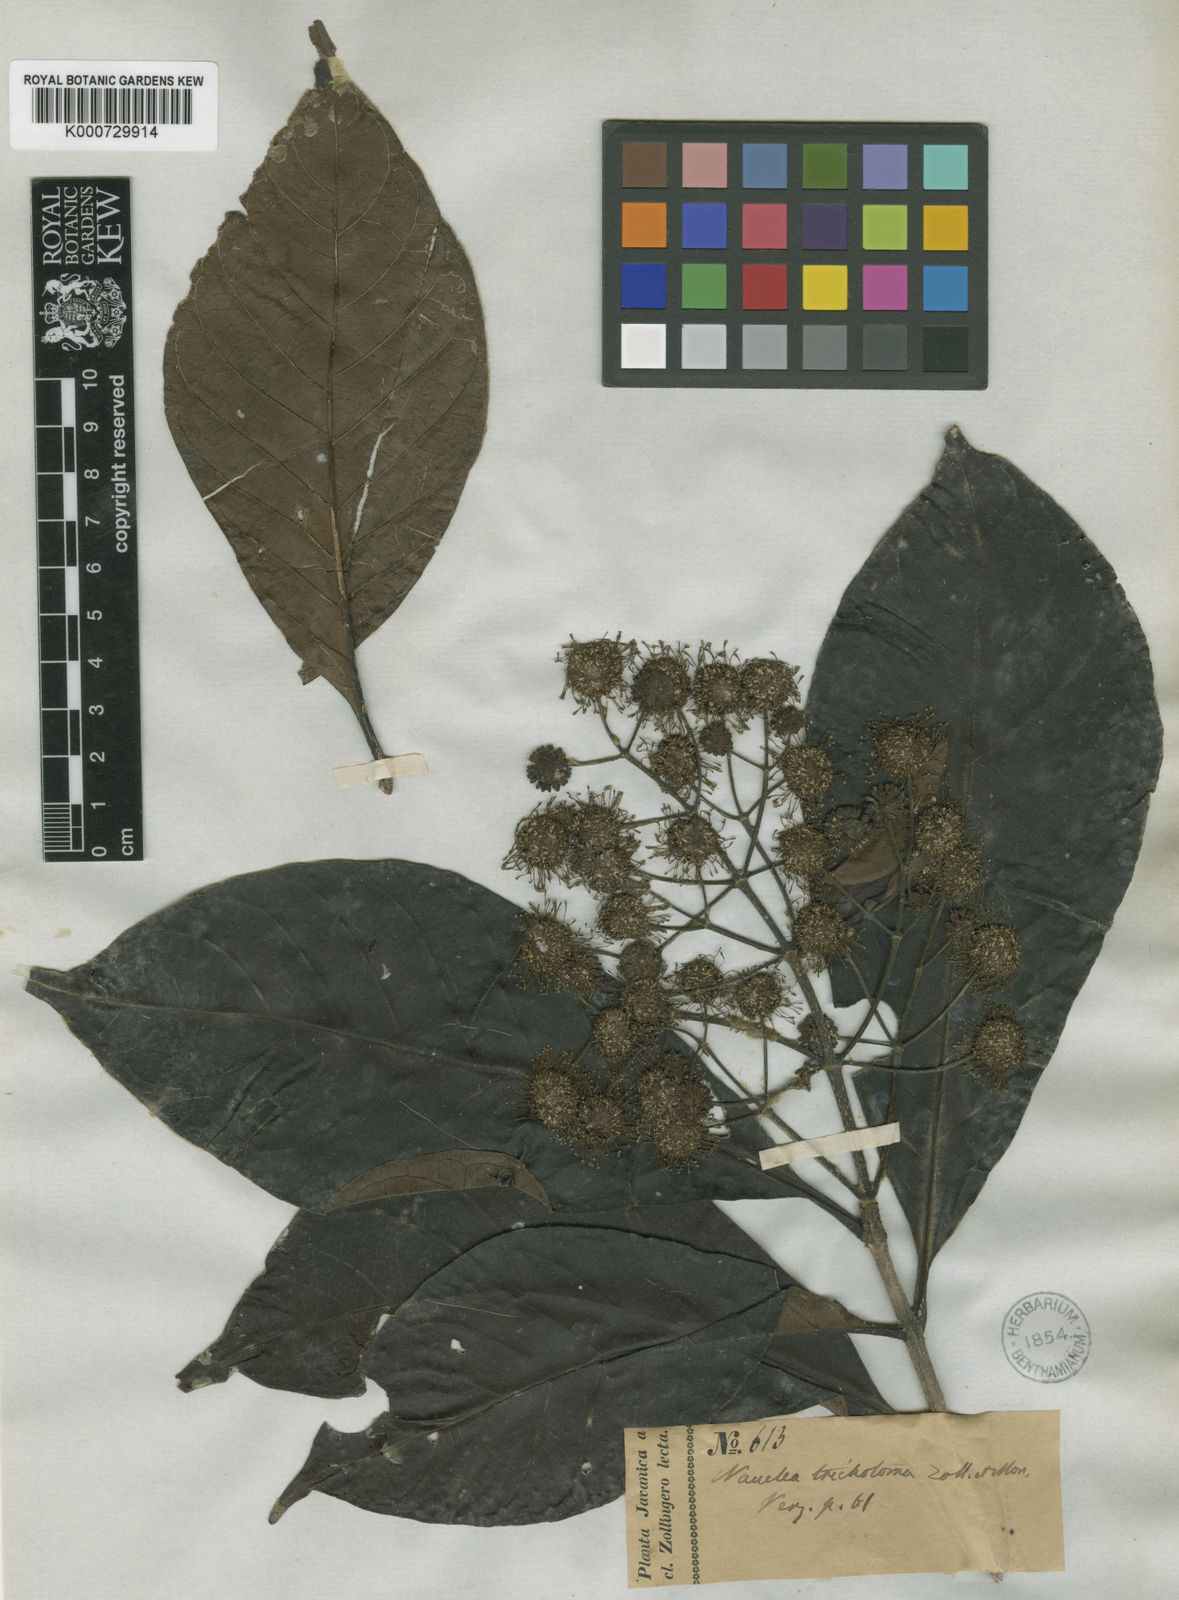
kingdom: Plantae
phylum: Tracheophyta
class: Magnoliopsida
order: Gentianales
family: Rubiaceae
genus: Adina
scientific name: Adina trichotoma
